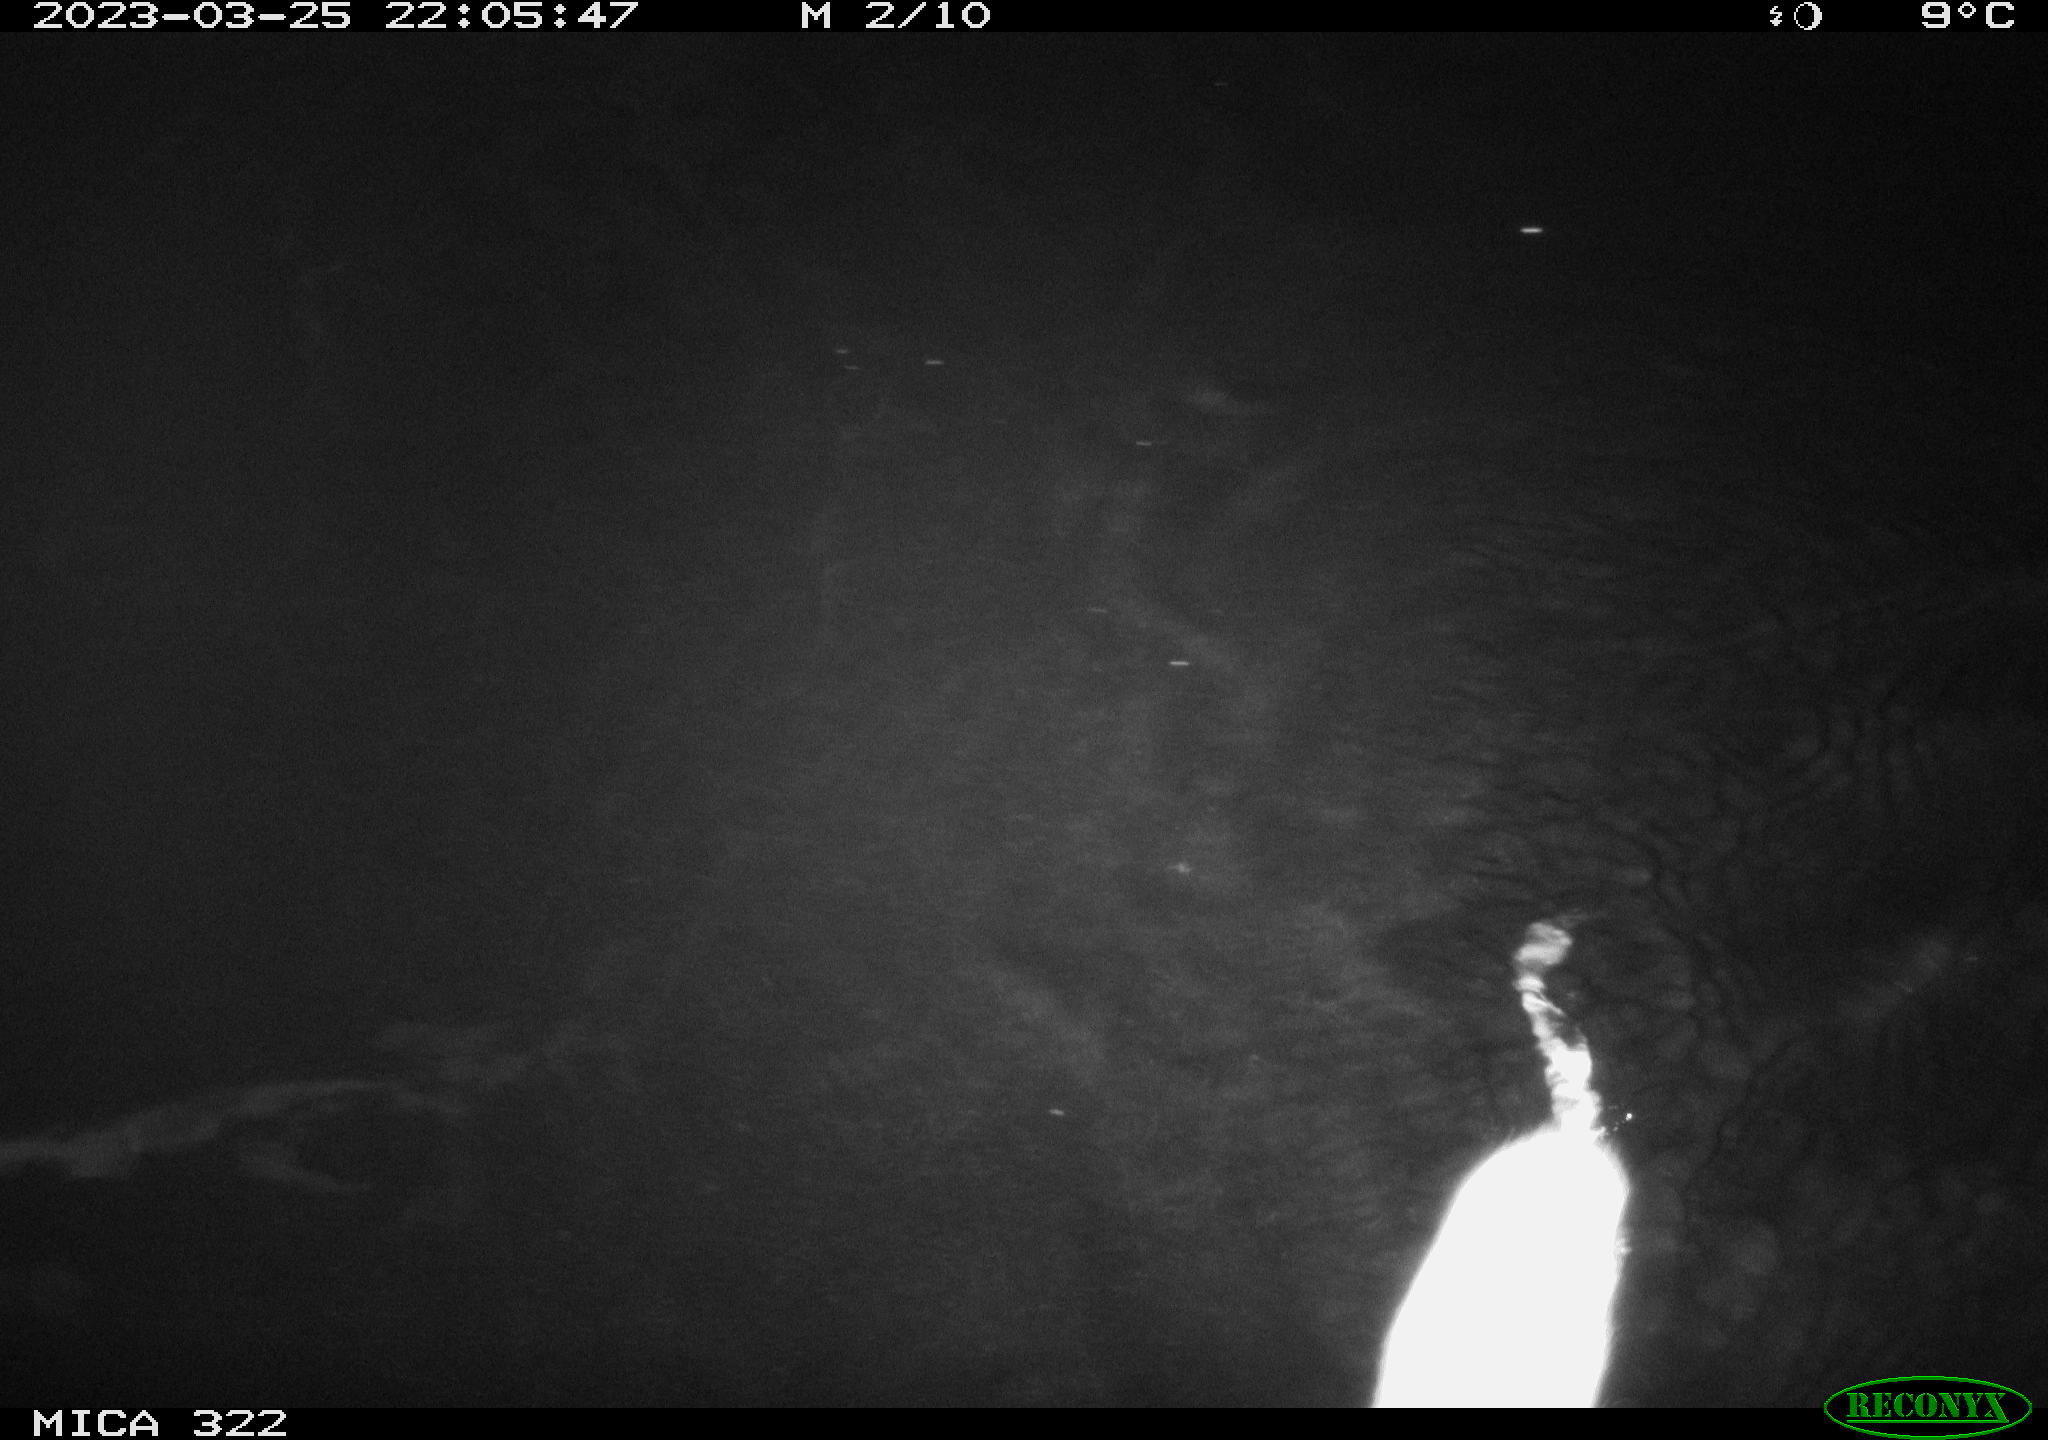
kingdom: Animalia
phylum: Chordata
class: Mammalia
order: Rodentia
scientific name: Rodentia
